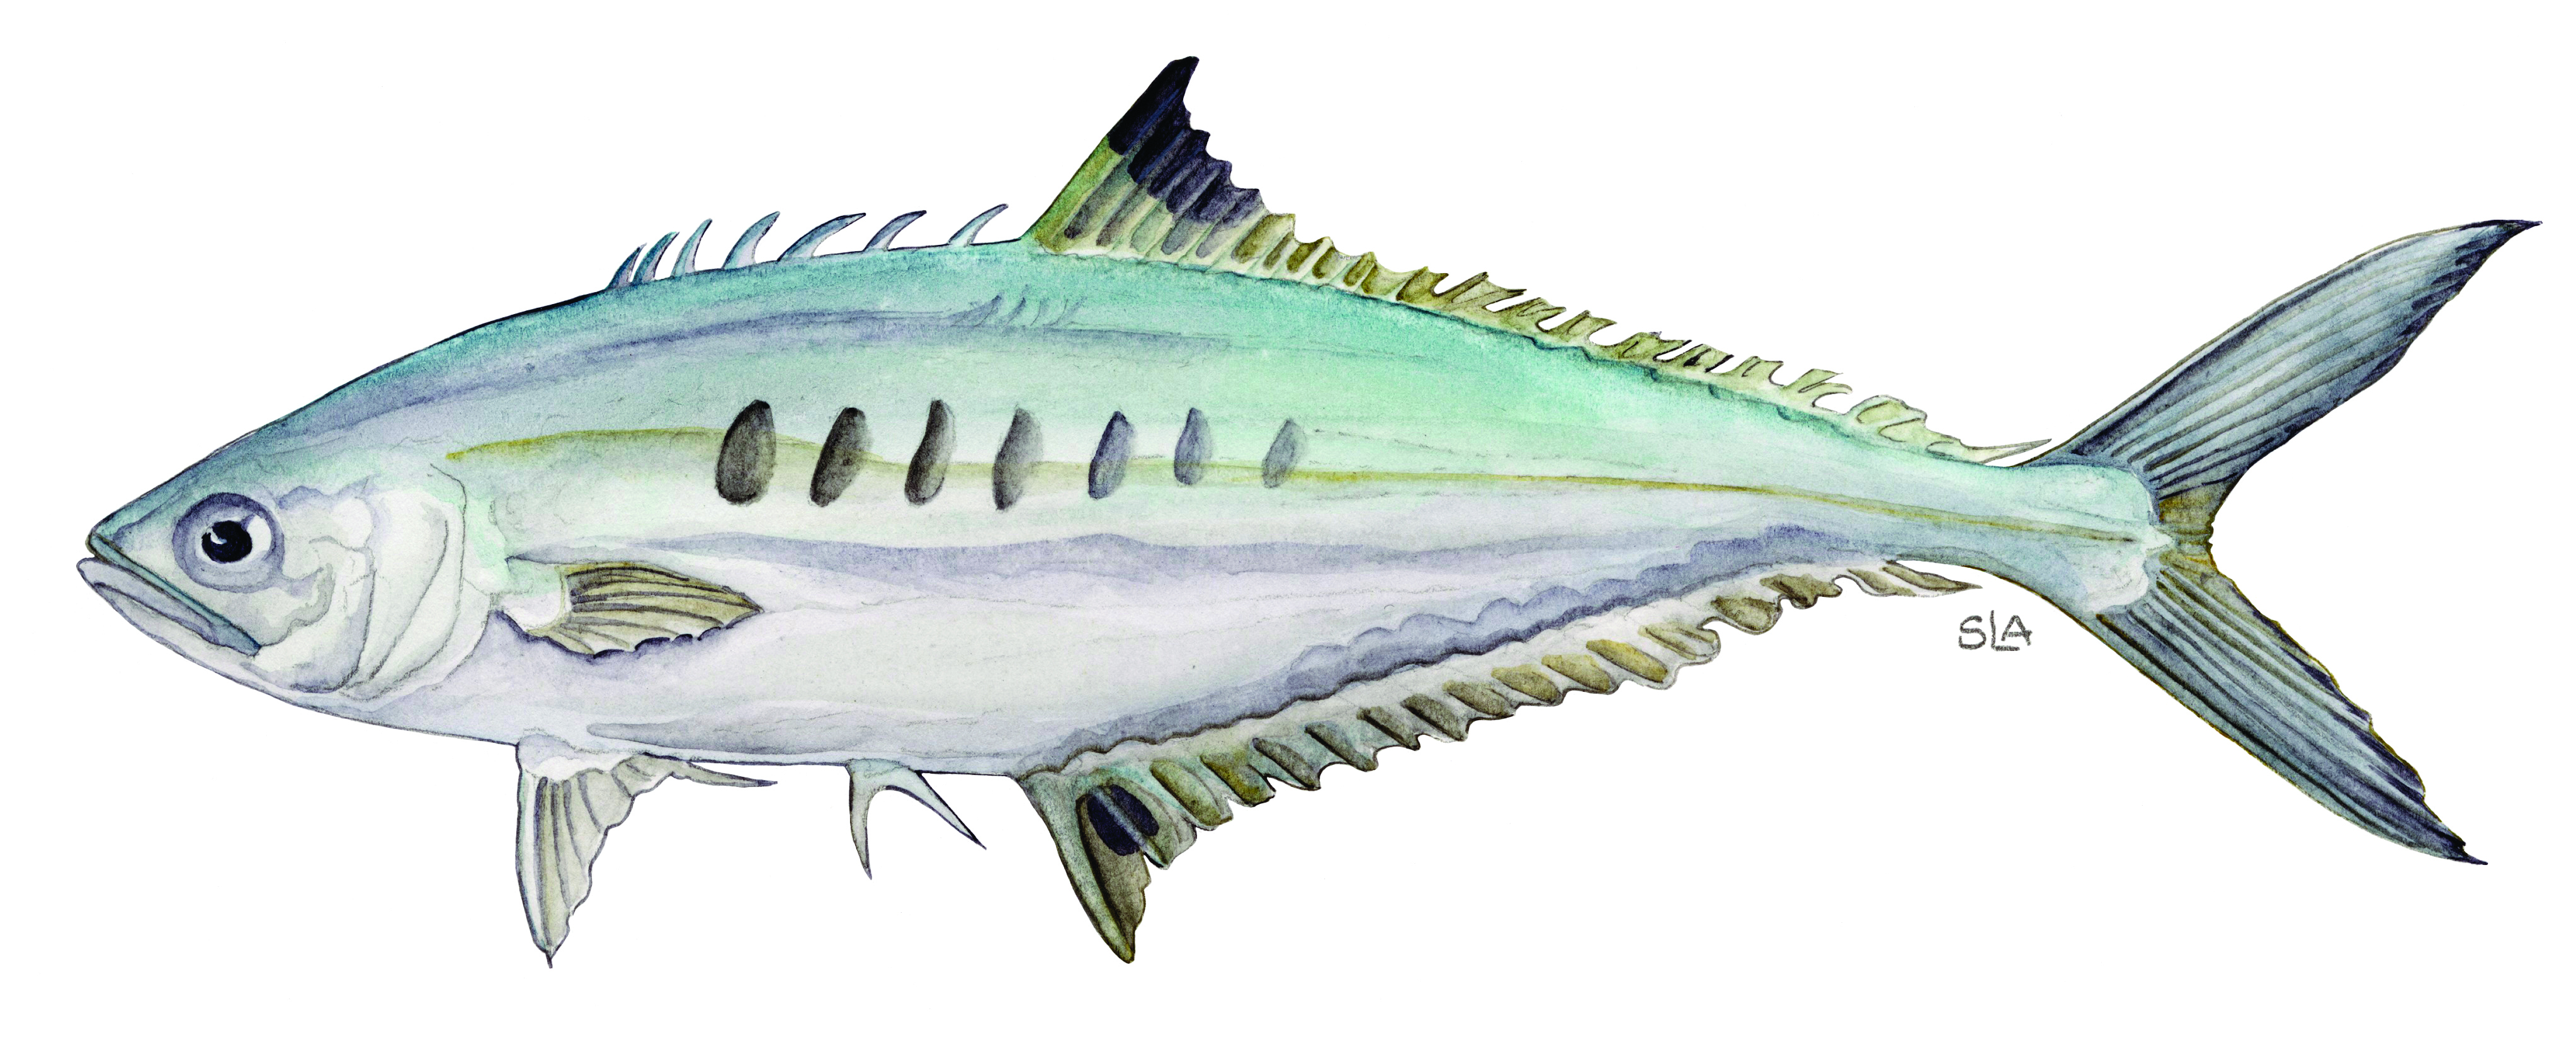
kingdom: Animalia
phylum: Chordata
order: Perciformes
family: Carangidae
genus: Scomberoides
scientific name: Scomberoides tol
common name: Needlescaled queenfish
